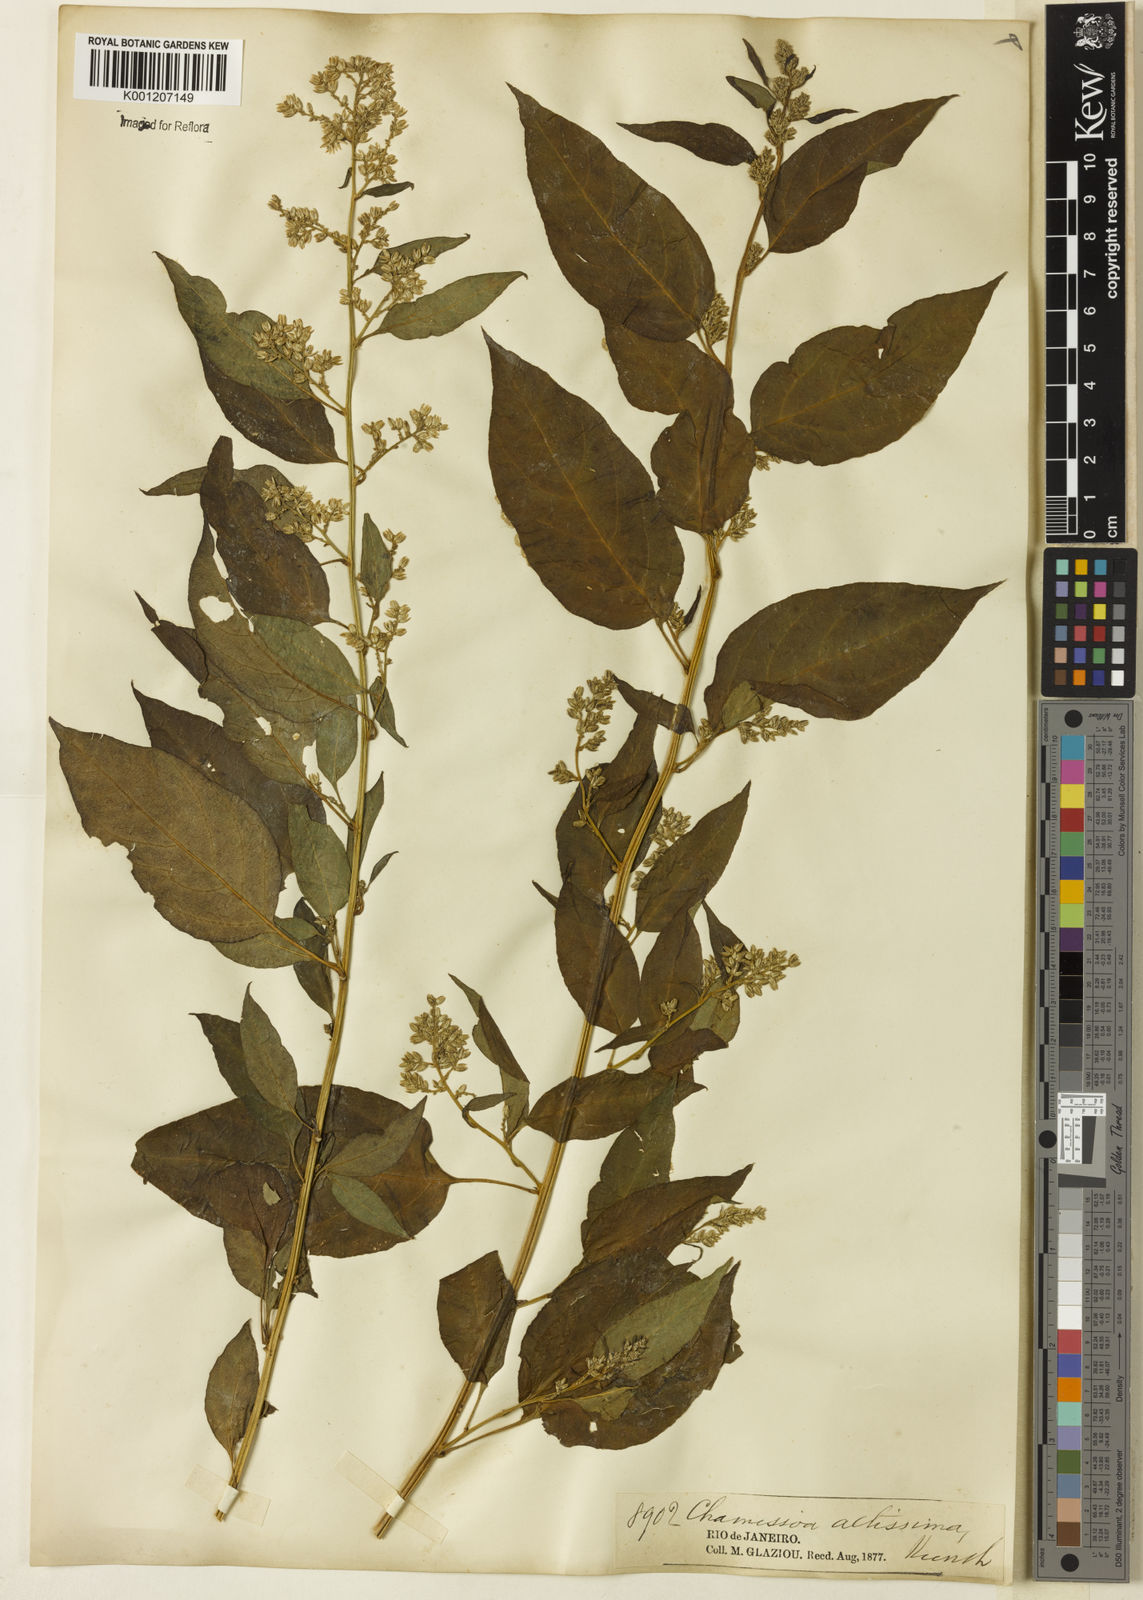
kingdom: Plantae
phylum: Tracheophyta
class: Magnoliopsida
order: Caryophyllales
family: Amaranthaceae
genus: Chamissoa
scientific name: Chamissoa altissima
